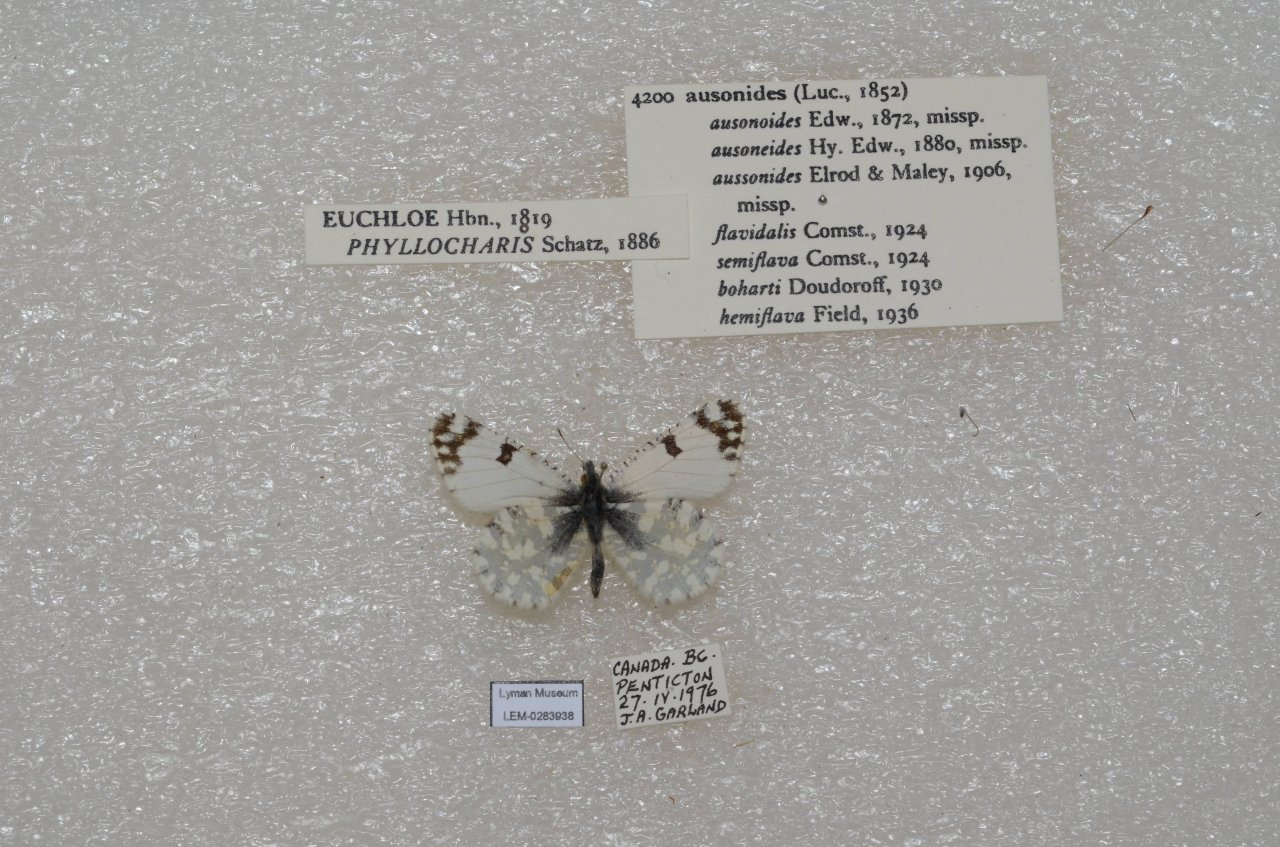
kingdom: Animalia
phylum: Arthropoda
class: Insecta
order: Lepidoptera
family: Pieridae
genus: Euchloe
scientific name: Euchloe ausonides
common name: Large Marble
